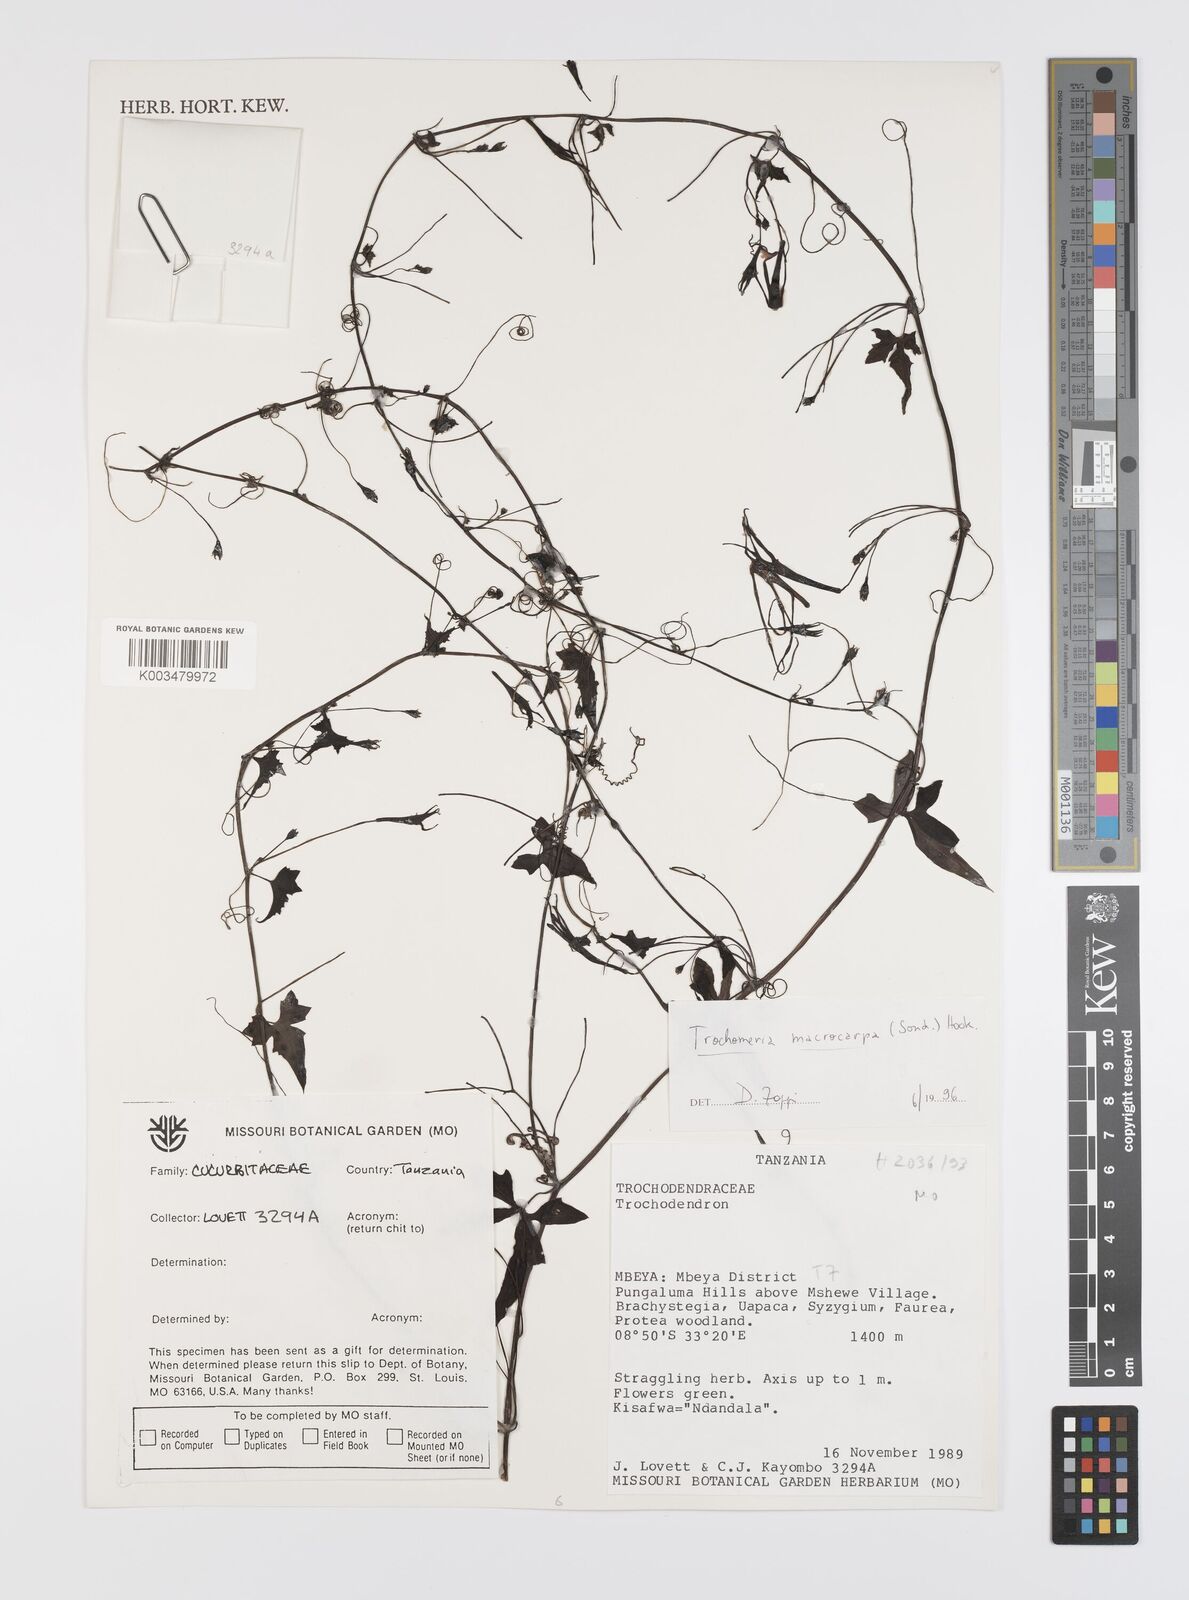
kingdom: Plantae
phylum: Tracheophyta
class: Magnoliopsida
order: Cucurbitales
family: Cucurbitaceae
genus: Trochomeria
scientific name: Trochomeria macrocarpa
